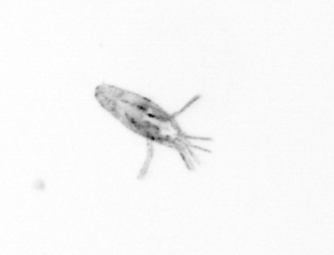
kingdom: Animalia
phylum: Arthropoda
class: Copepoda
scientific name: Copepoda
